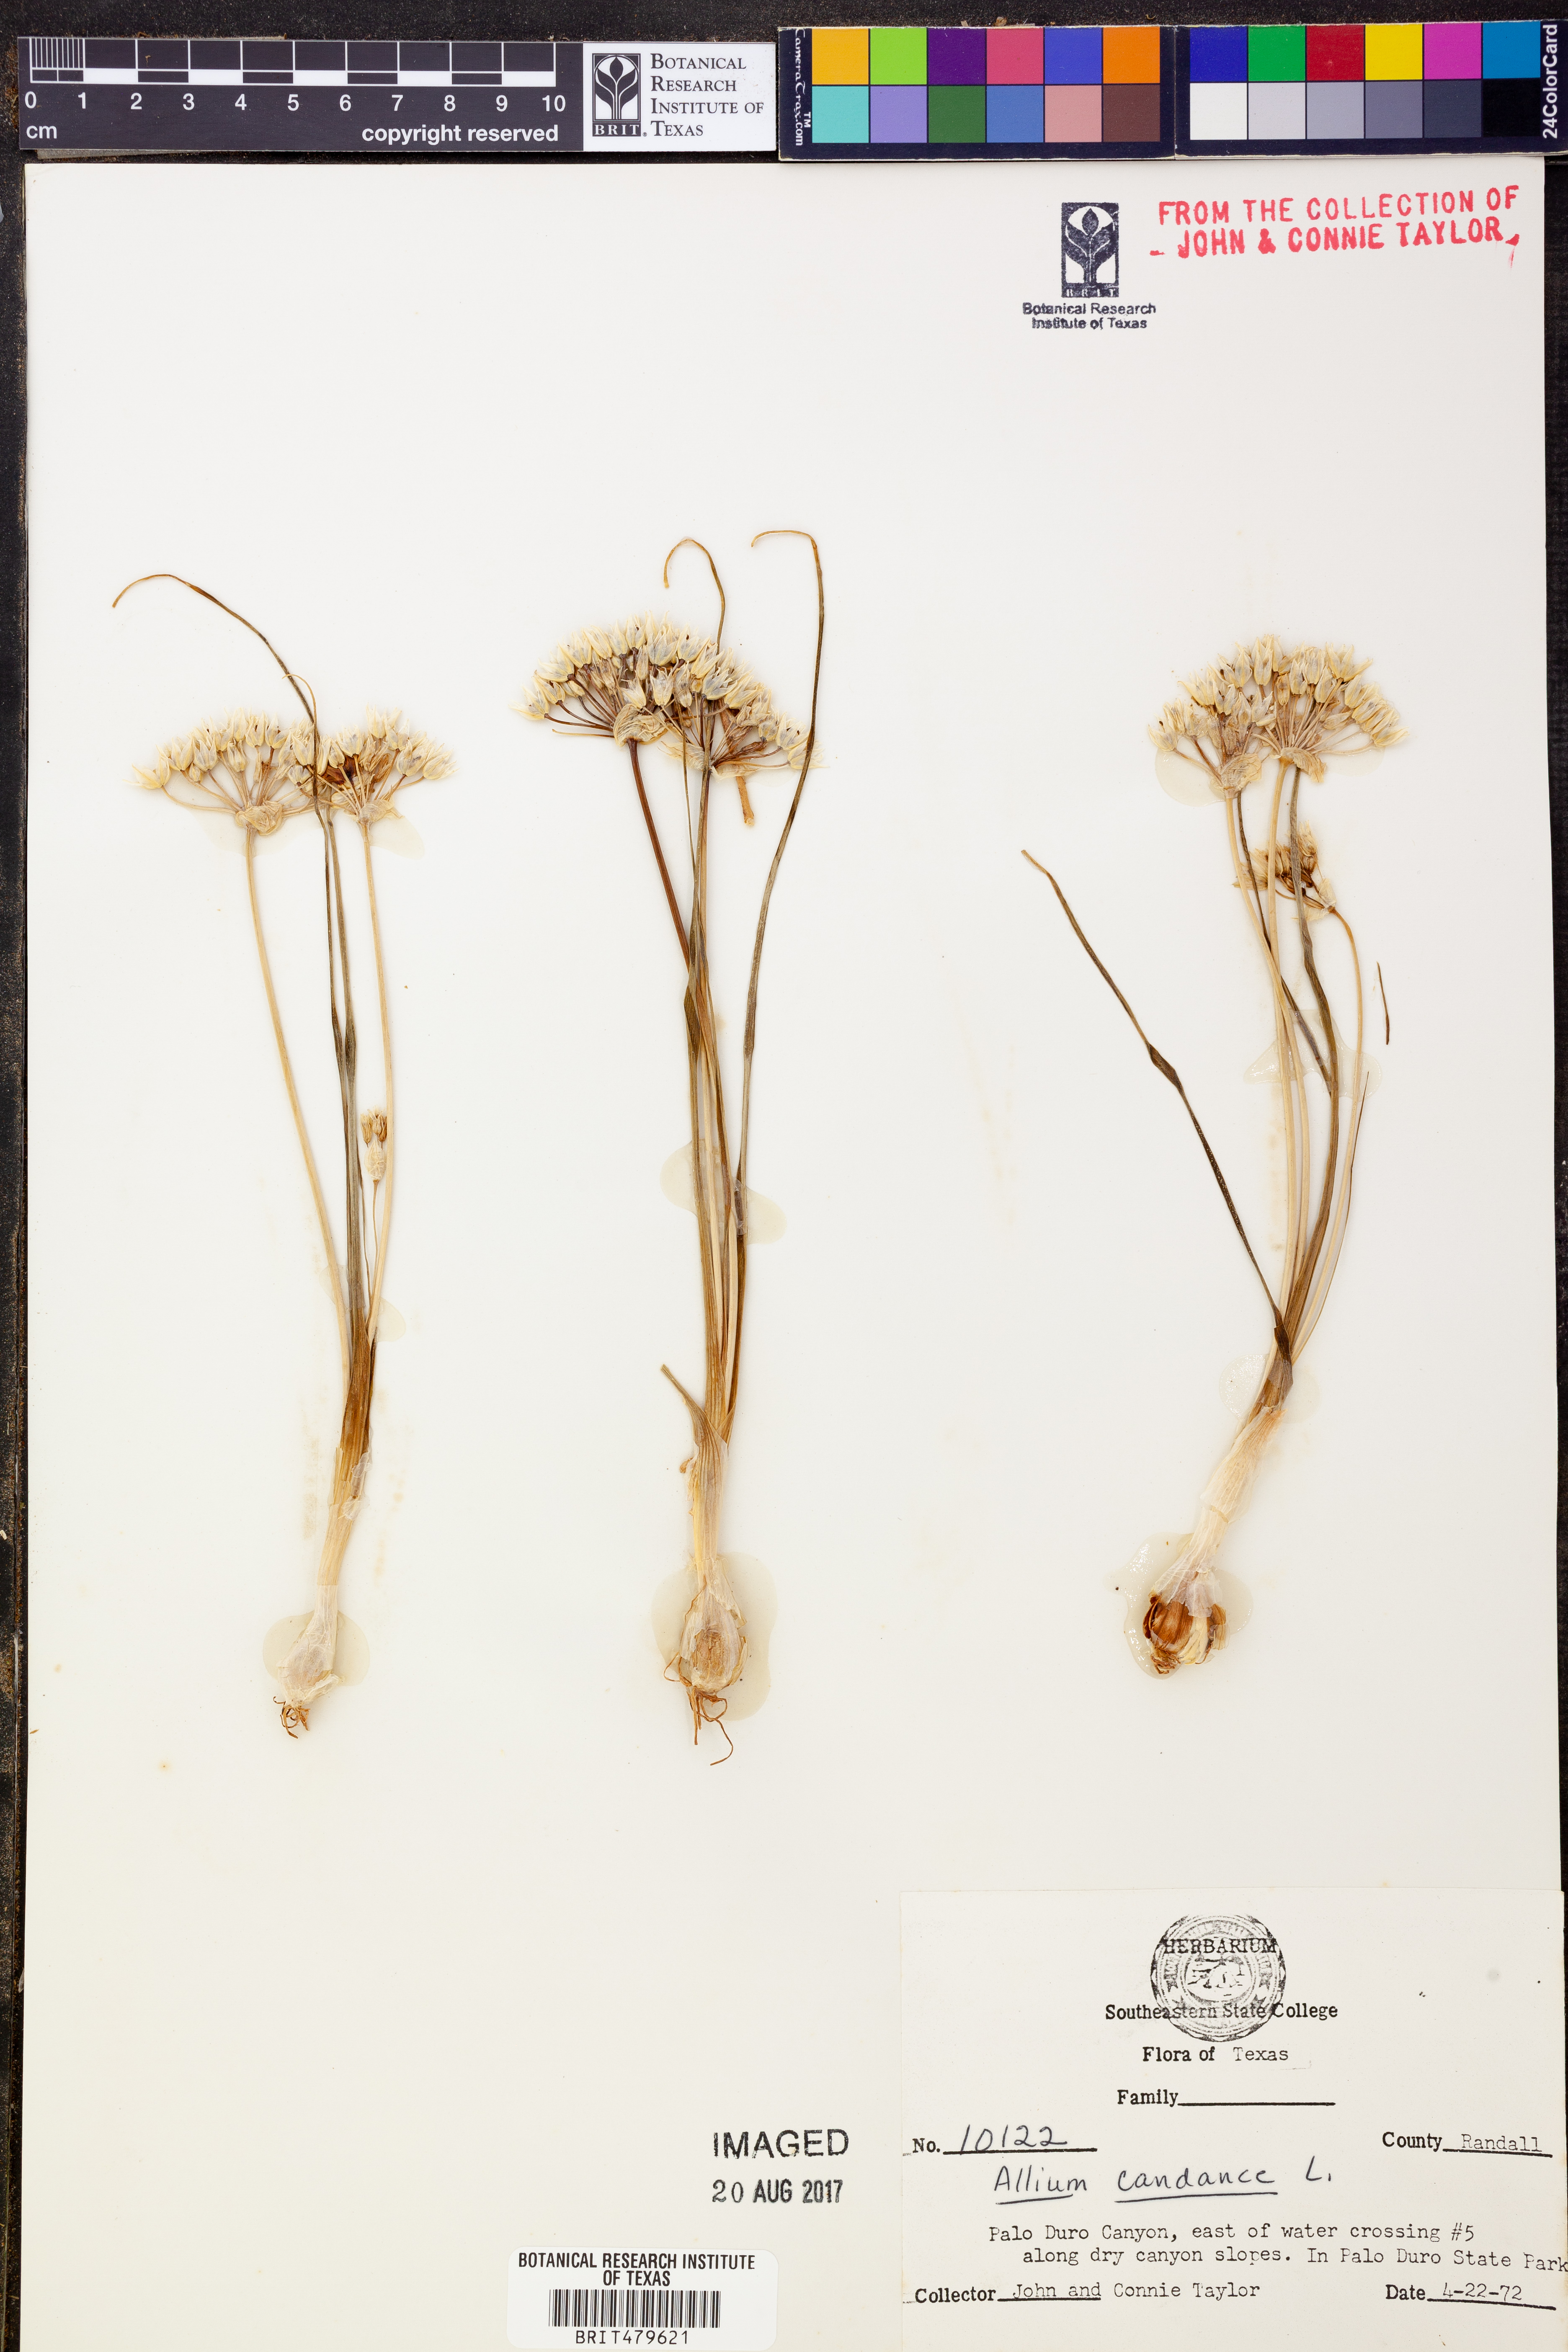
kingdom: Plantae
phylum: Tracheophyta
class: Liliopsida
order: Asparagales
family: Amaryllidaceae
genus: Allium
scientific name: Allium canadense
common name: Meadow garlic
